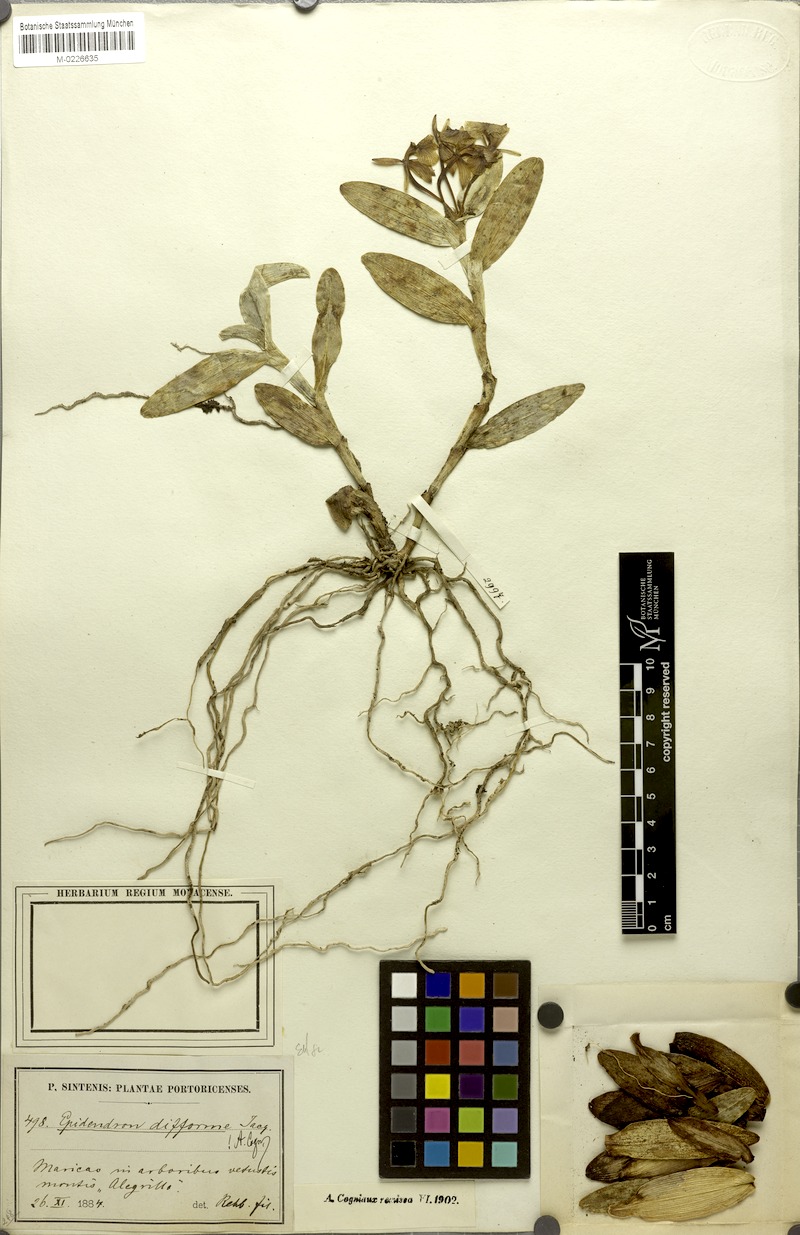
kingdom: Plantae
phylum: Tracheophyta
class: Liliopsida
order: Asparagales
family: Orchidaceae
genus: Epidendrum
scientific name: Epidendrum boricuarum
